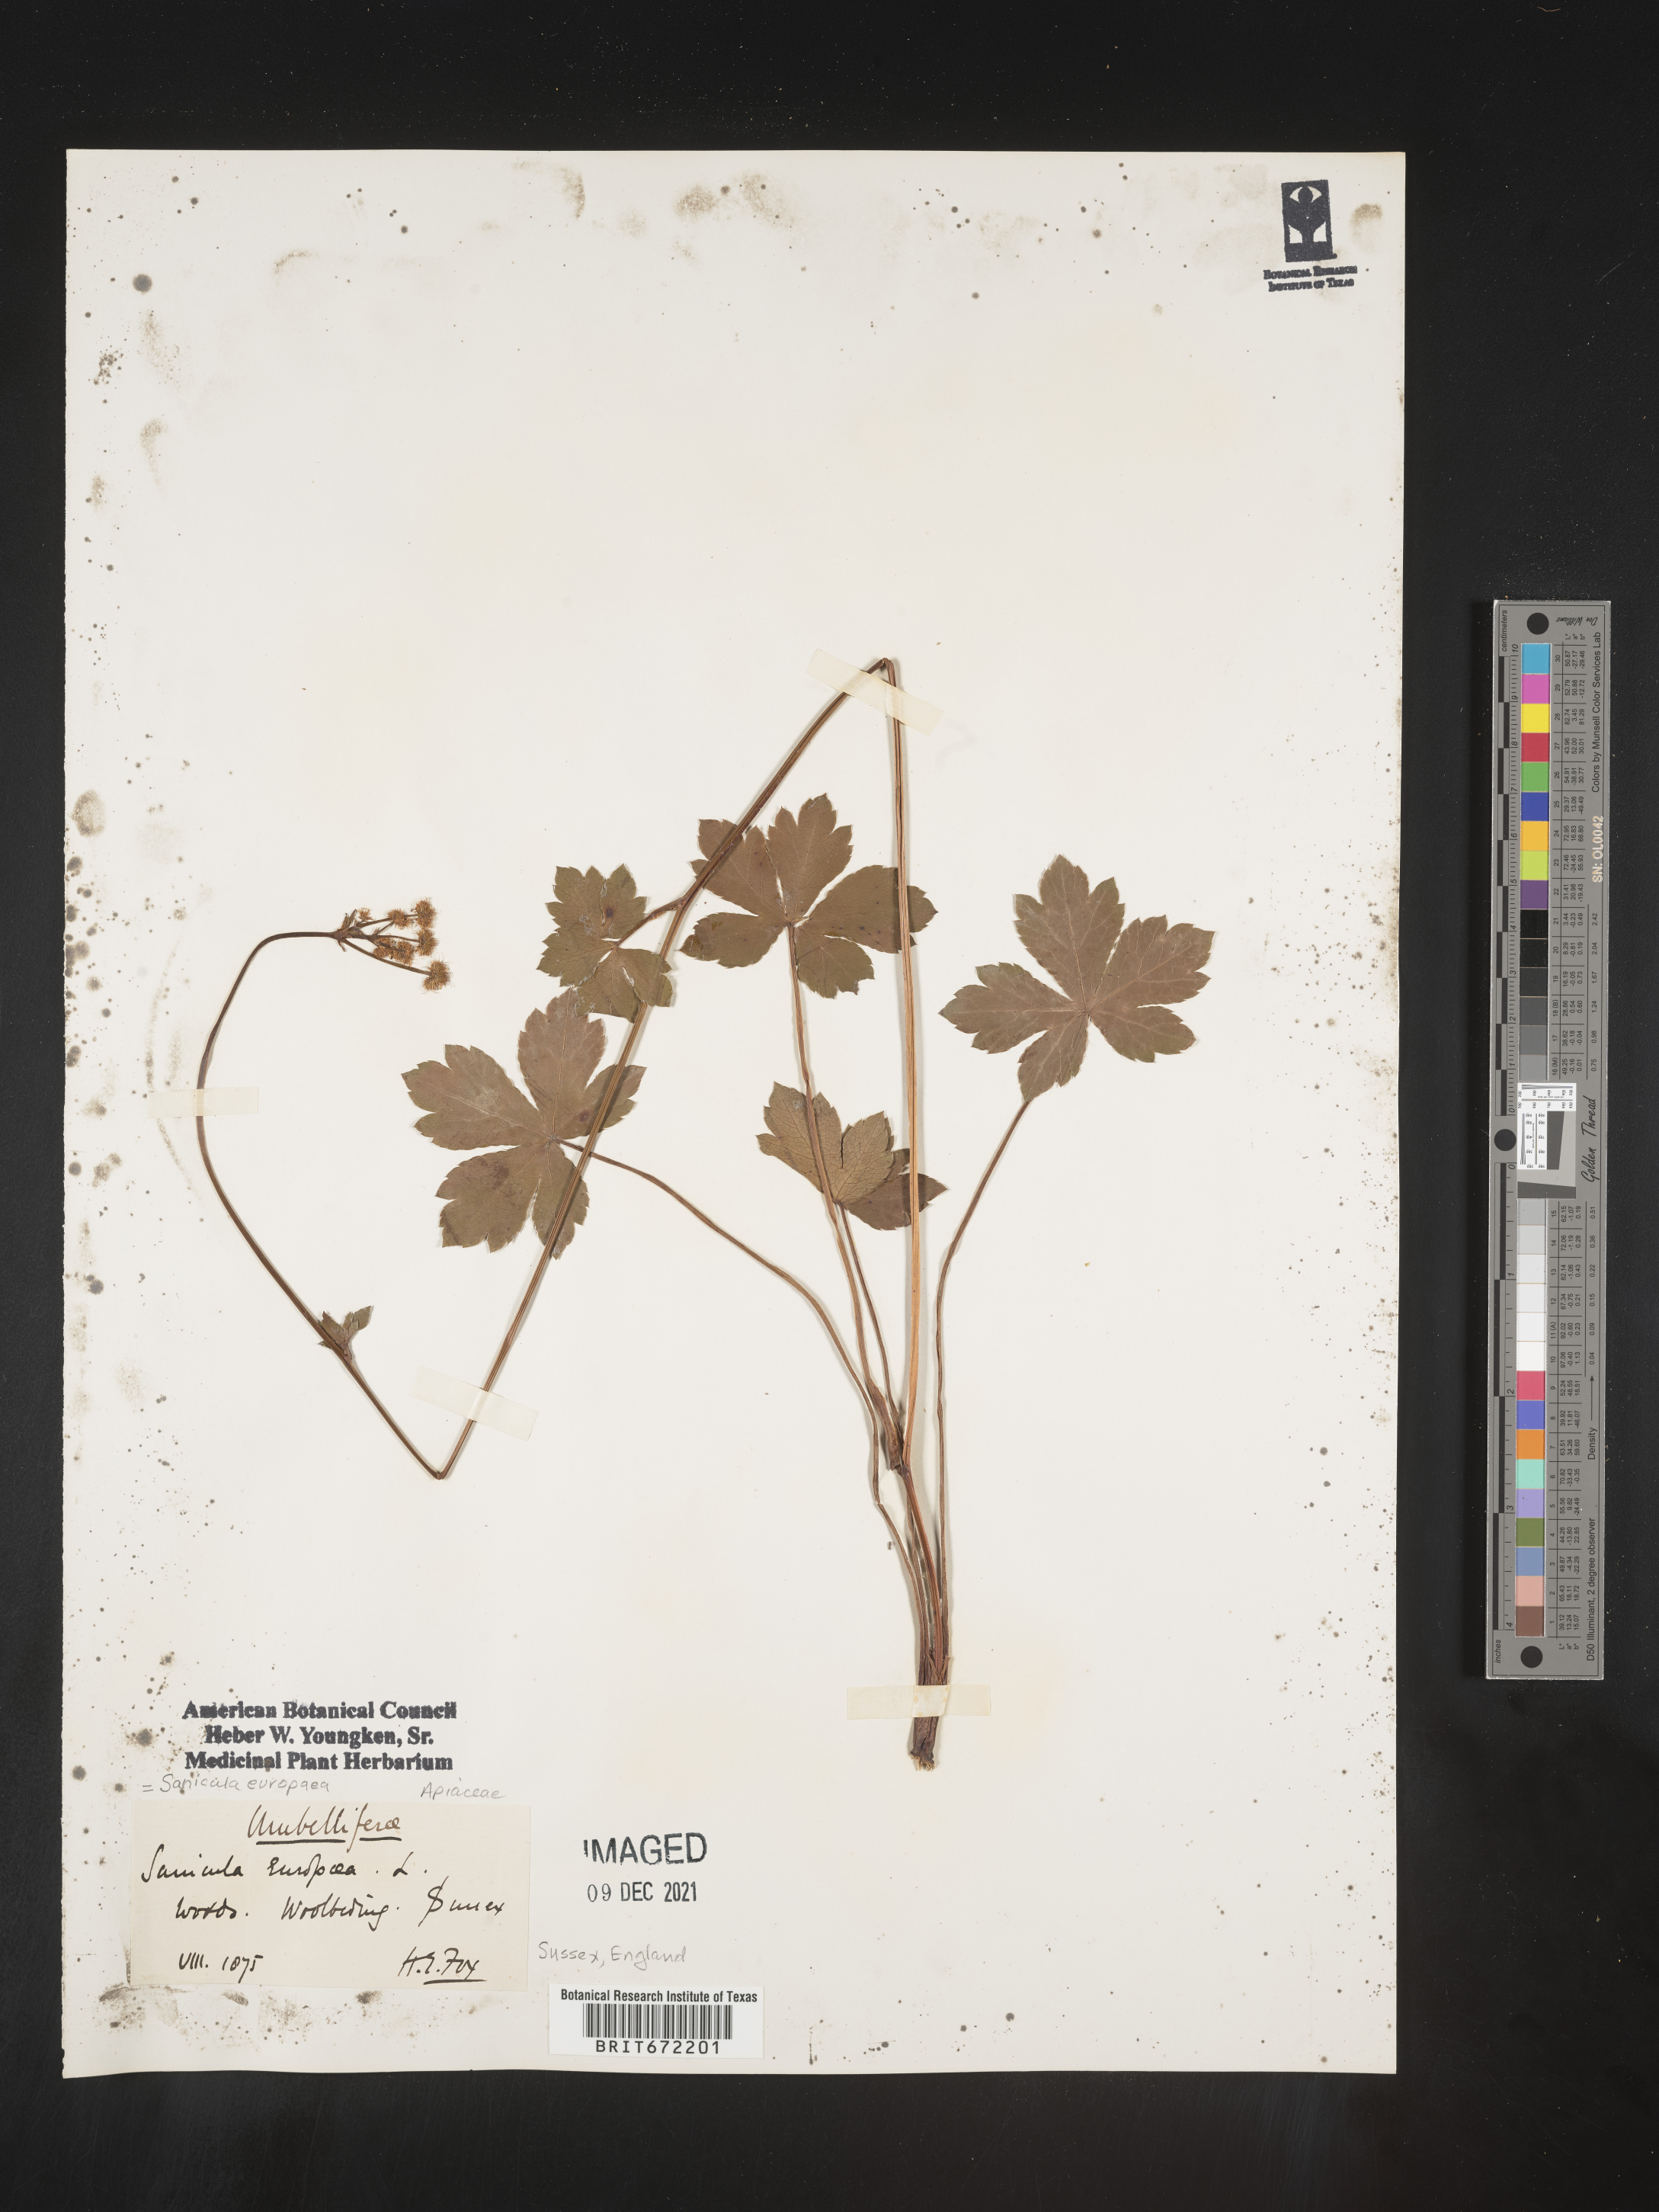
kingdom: Plantae
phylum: Tracheophyta
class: Magnoliopsida
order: Apiales
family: Apiaceae
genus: Sanicula
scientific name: Sanicula
